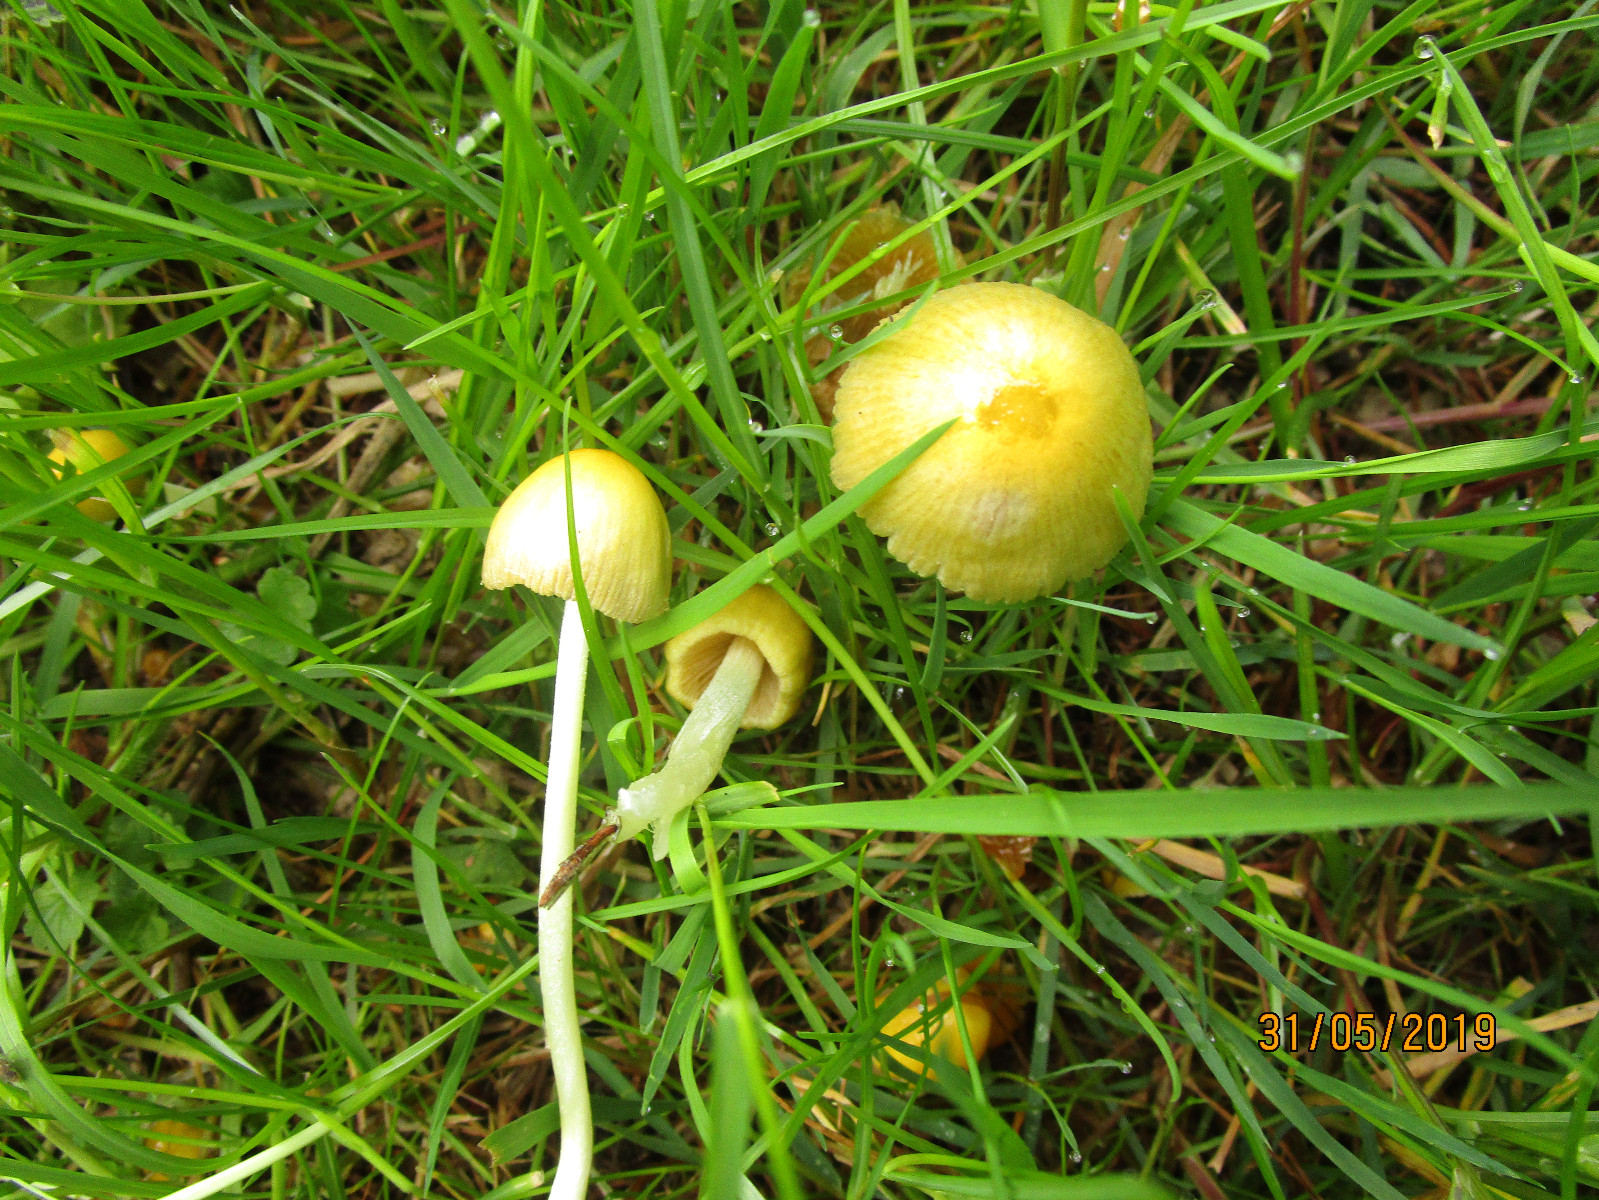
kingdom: Fungi
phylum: Basidiomycota
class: Agaricomycetes
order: Agaricales
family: Bolbitiaceae
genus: Bolbitius
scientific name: Bolbitius titubans
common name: almindelig gulhat
